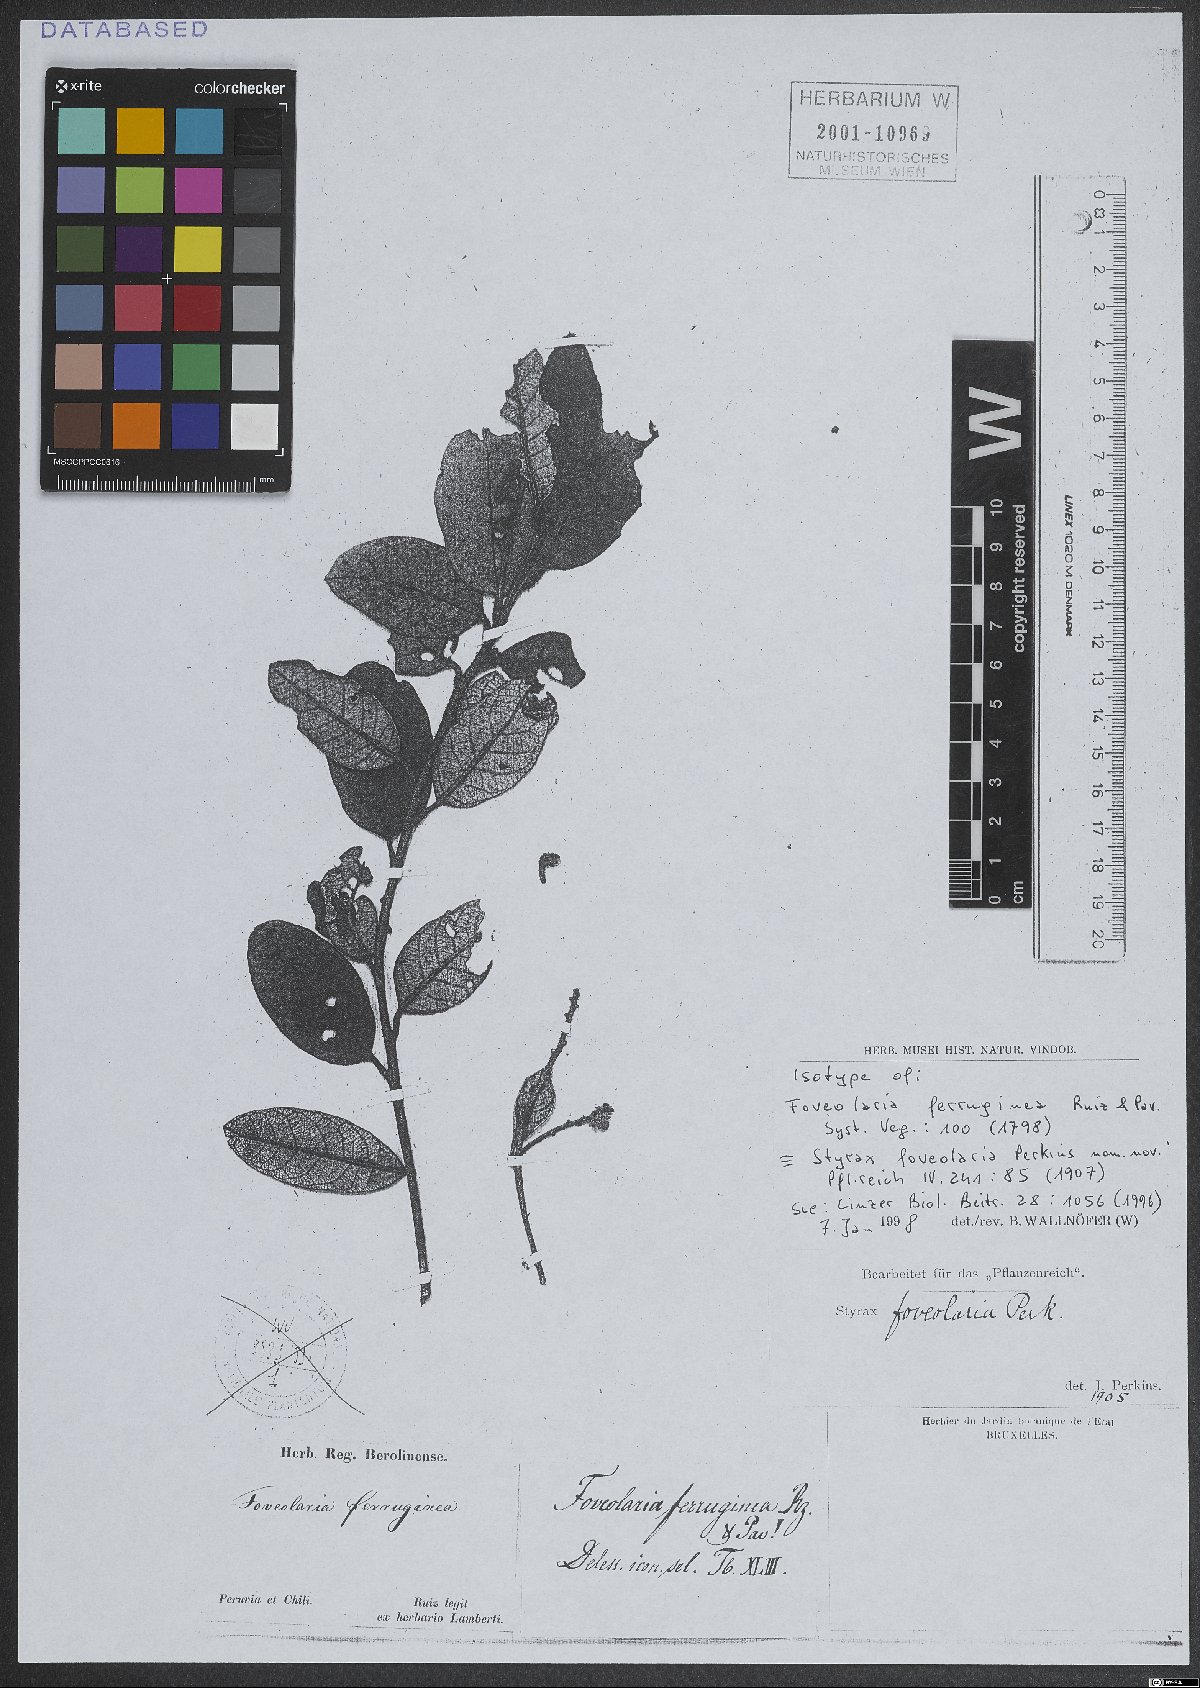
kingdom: Plantae
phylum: Tracheophyta
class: Magnoliopsida
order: Ericales
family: Styracaceae
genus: Styrax
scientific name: Styrax racemosus
